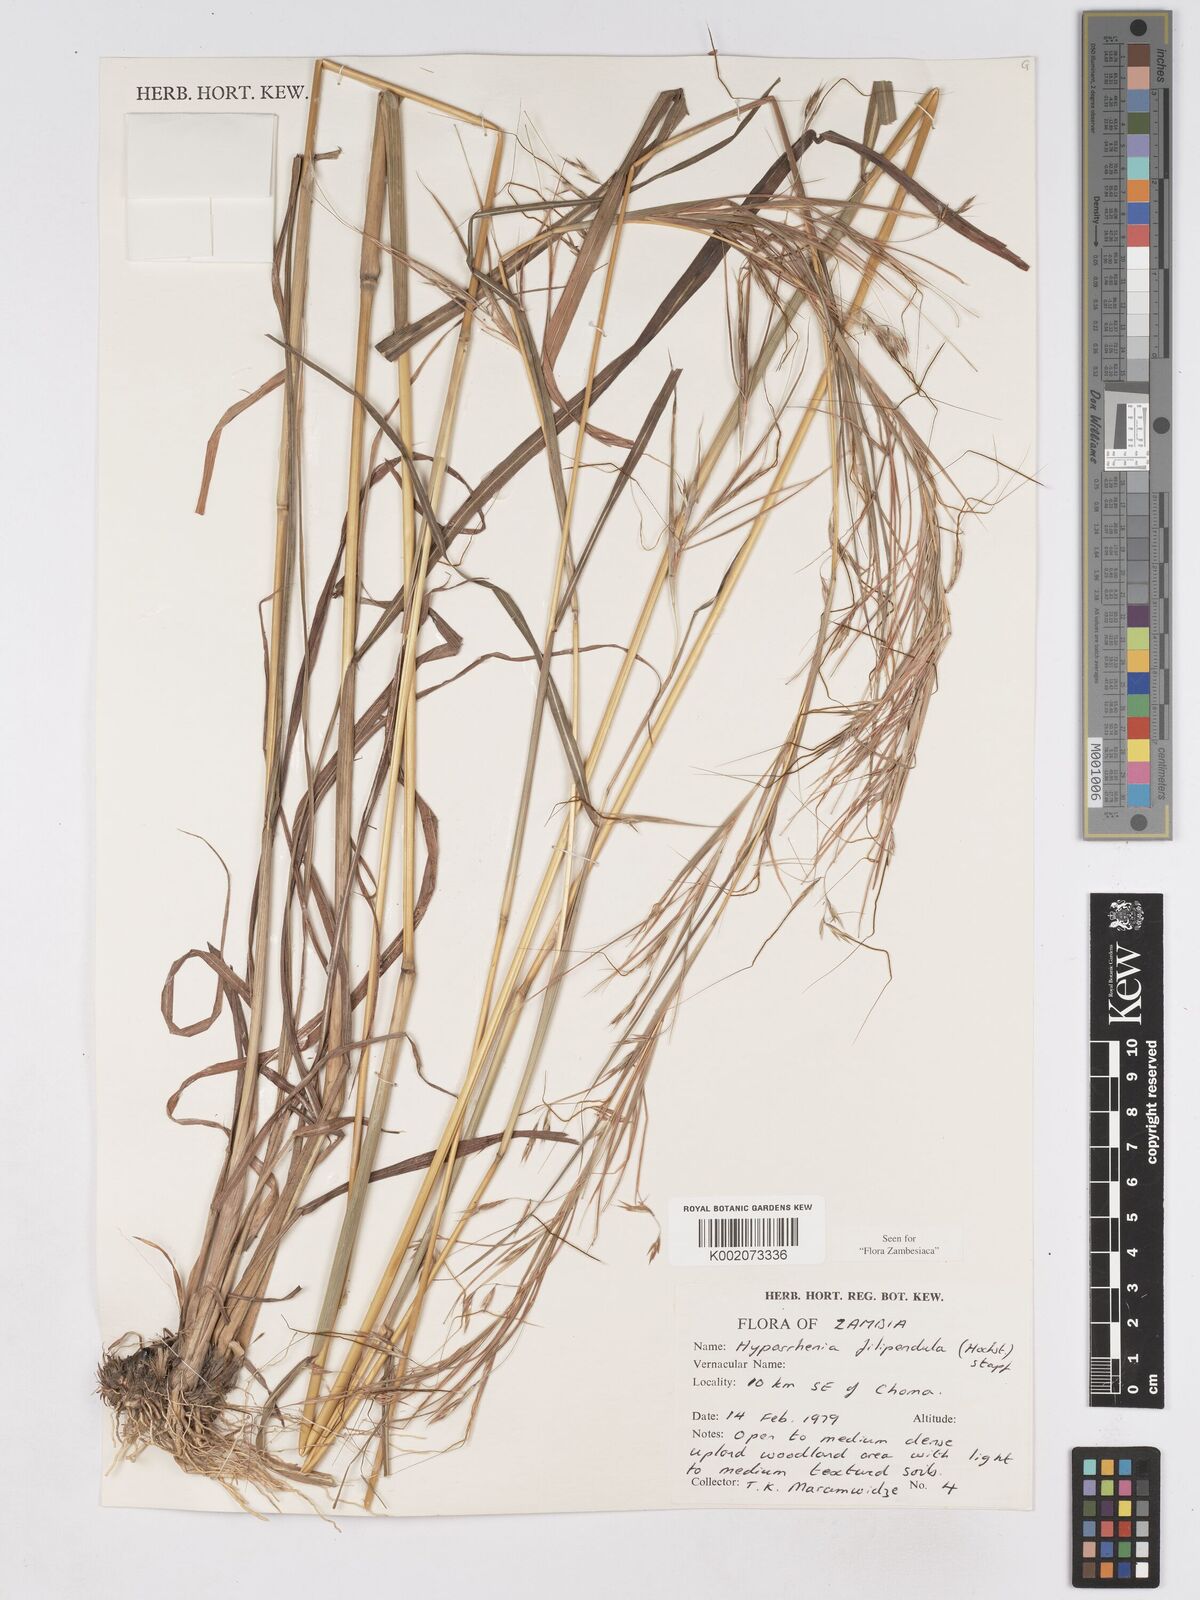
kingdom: Plantae
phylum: Tracheophyta
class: Liliopsida
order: Poales
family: Poaceae
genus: Hyparrhenia
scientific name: Hyparrhenia filipendula
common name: Tambookie grass
